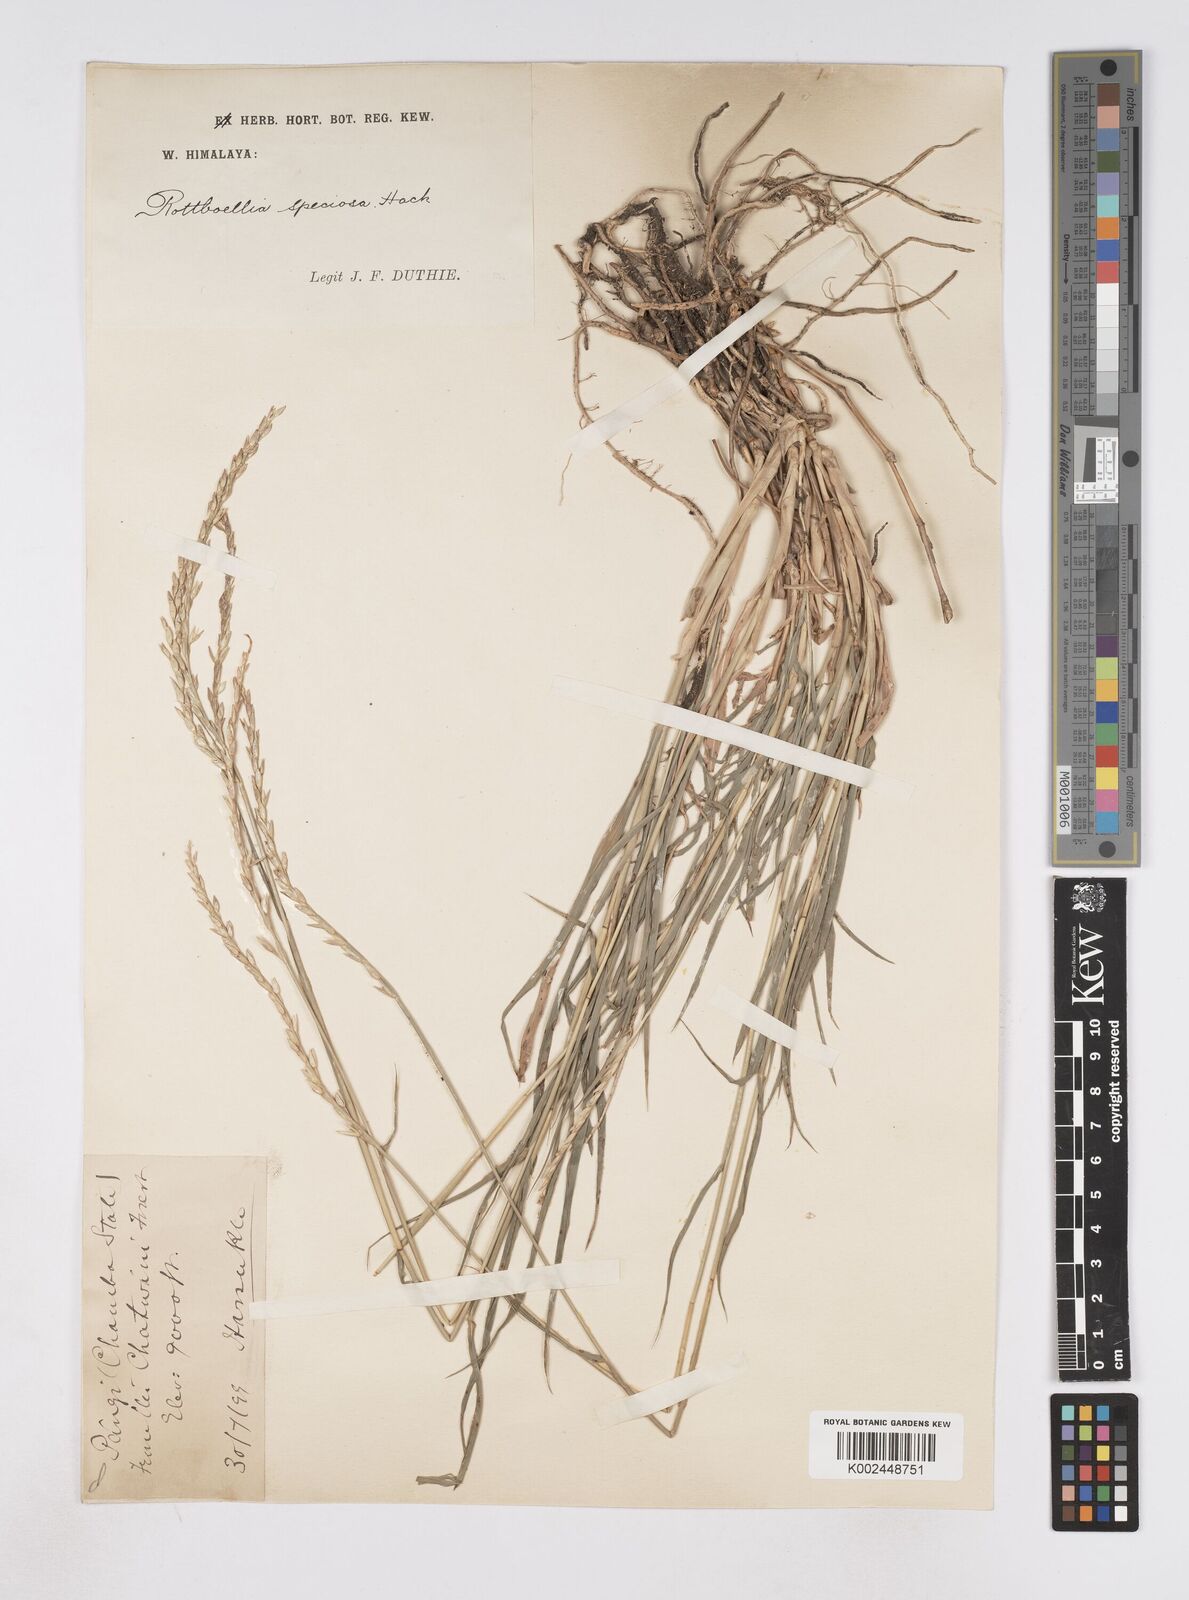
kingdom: Plantae
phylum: Tracheophyta
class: Liliopsida
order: Poales
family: Poaceae
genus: Phacelurus
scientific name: Phacelurus speciosus
